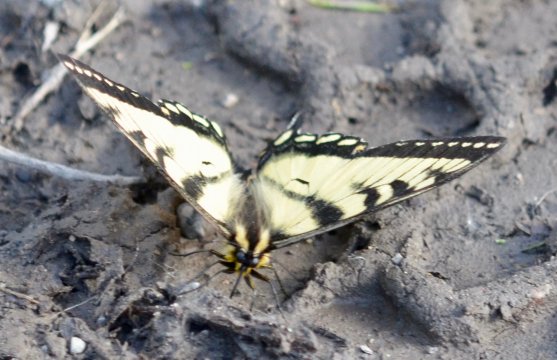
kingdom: Animalia
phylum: Arthropoda
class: Insecta
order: Lepidoptera
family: Papilionidae
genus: Pterourus
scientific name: Pterourus canadensis
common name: Canadian Tiger Swallowtail
